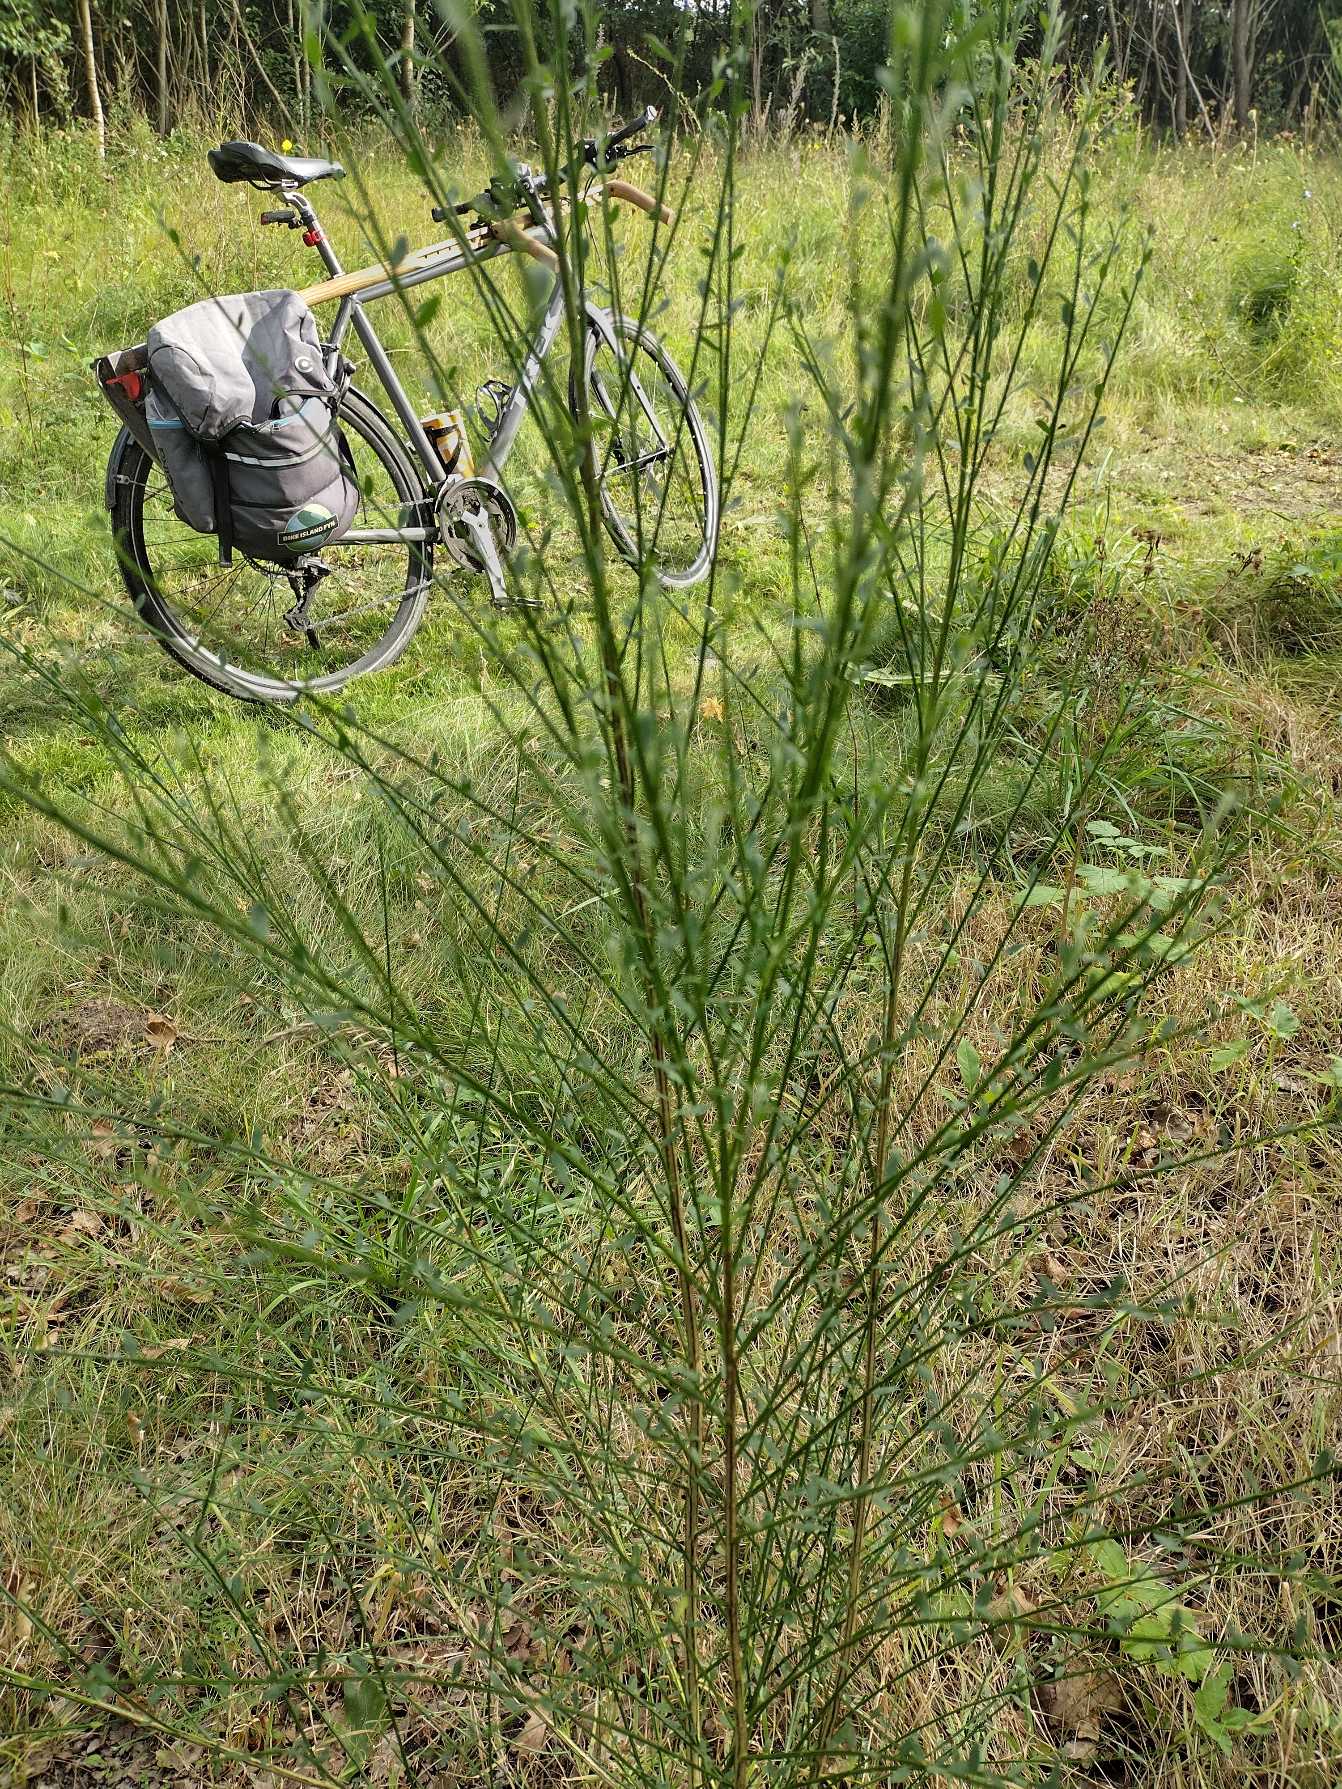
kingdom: Plantae
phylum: Tracheophyta
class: Magnoliopsida
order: Fabales
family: Fabaceae
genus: Cytisus
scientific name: Cytisus scoparius
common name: Almindelig gyvel
